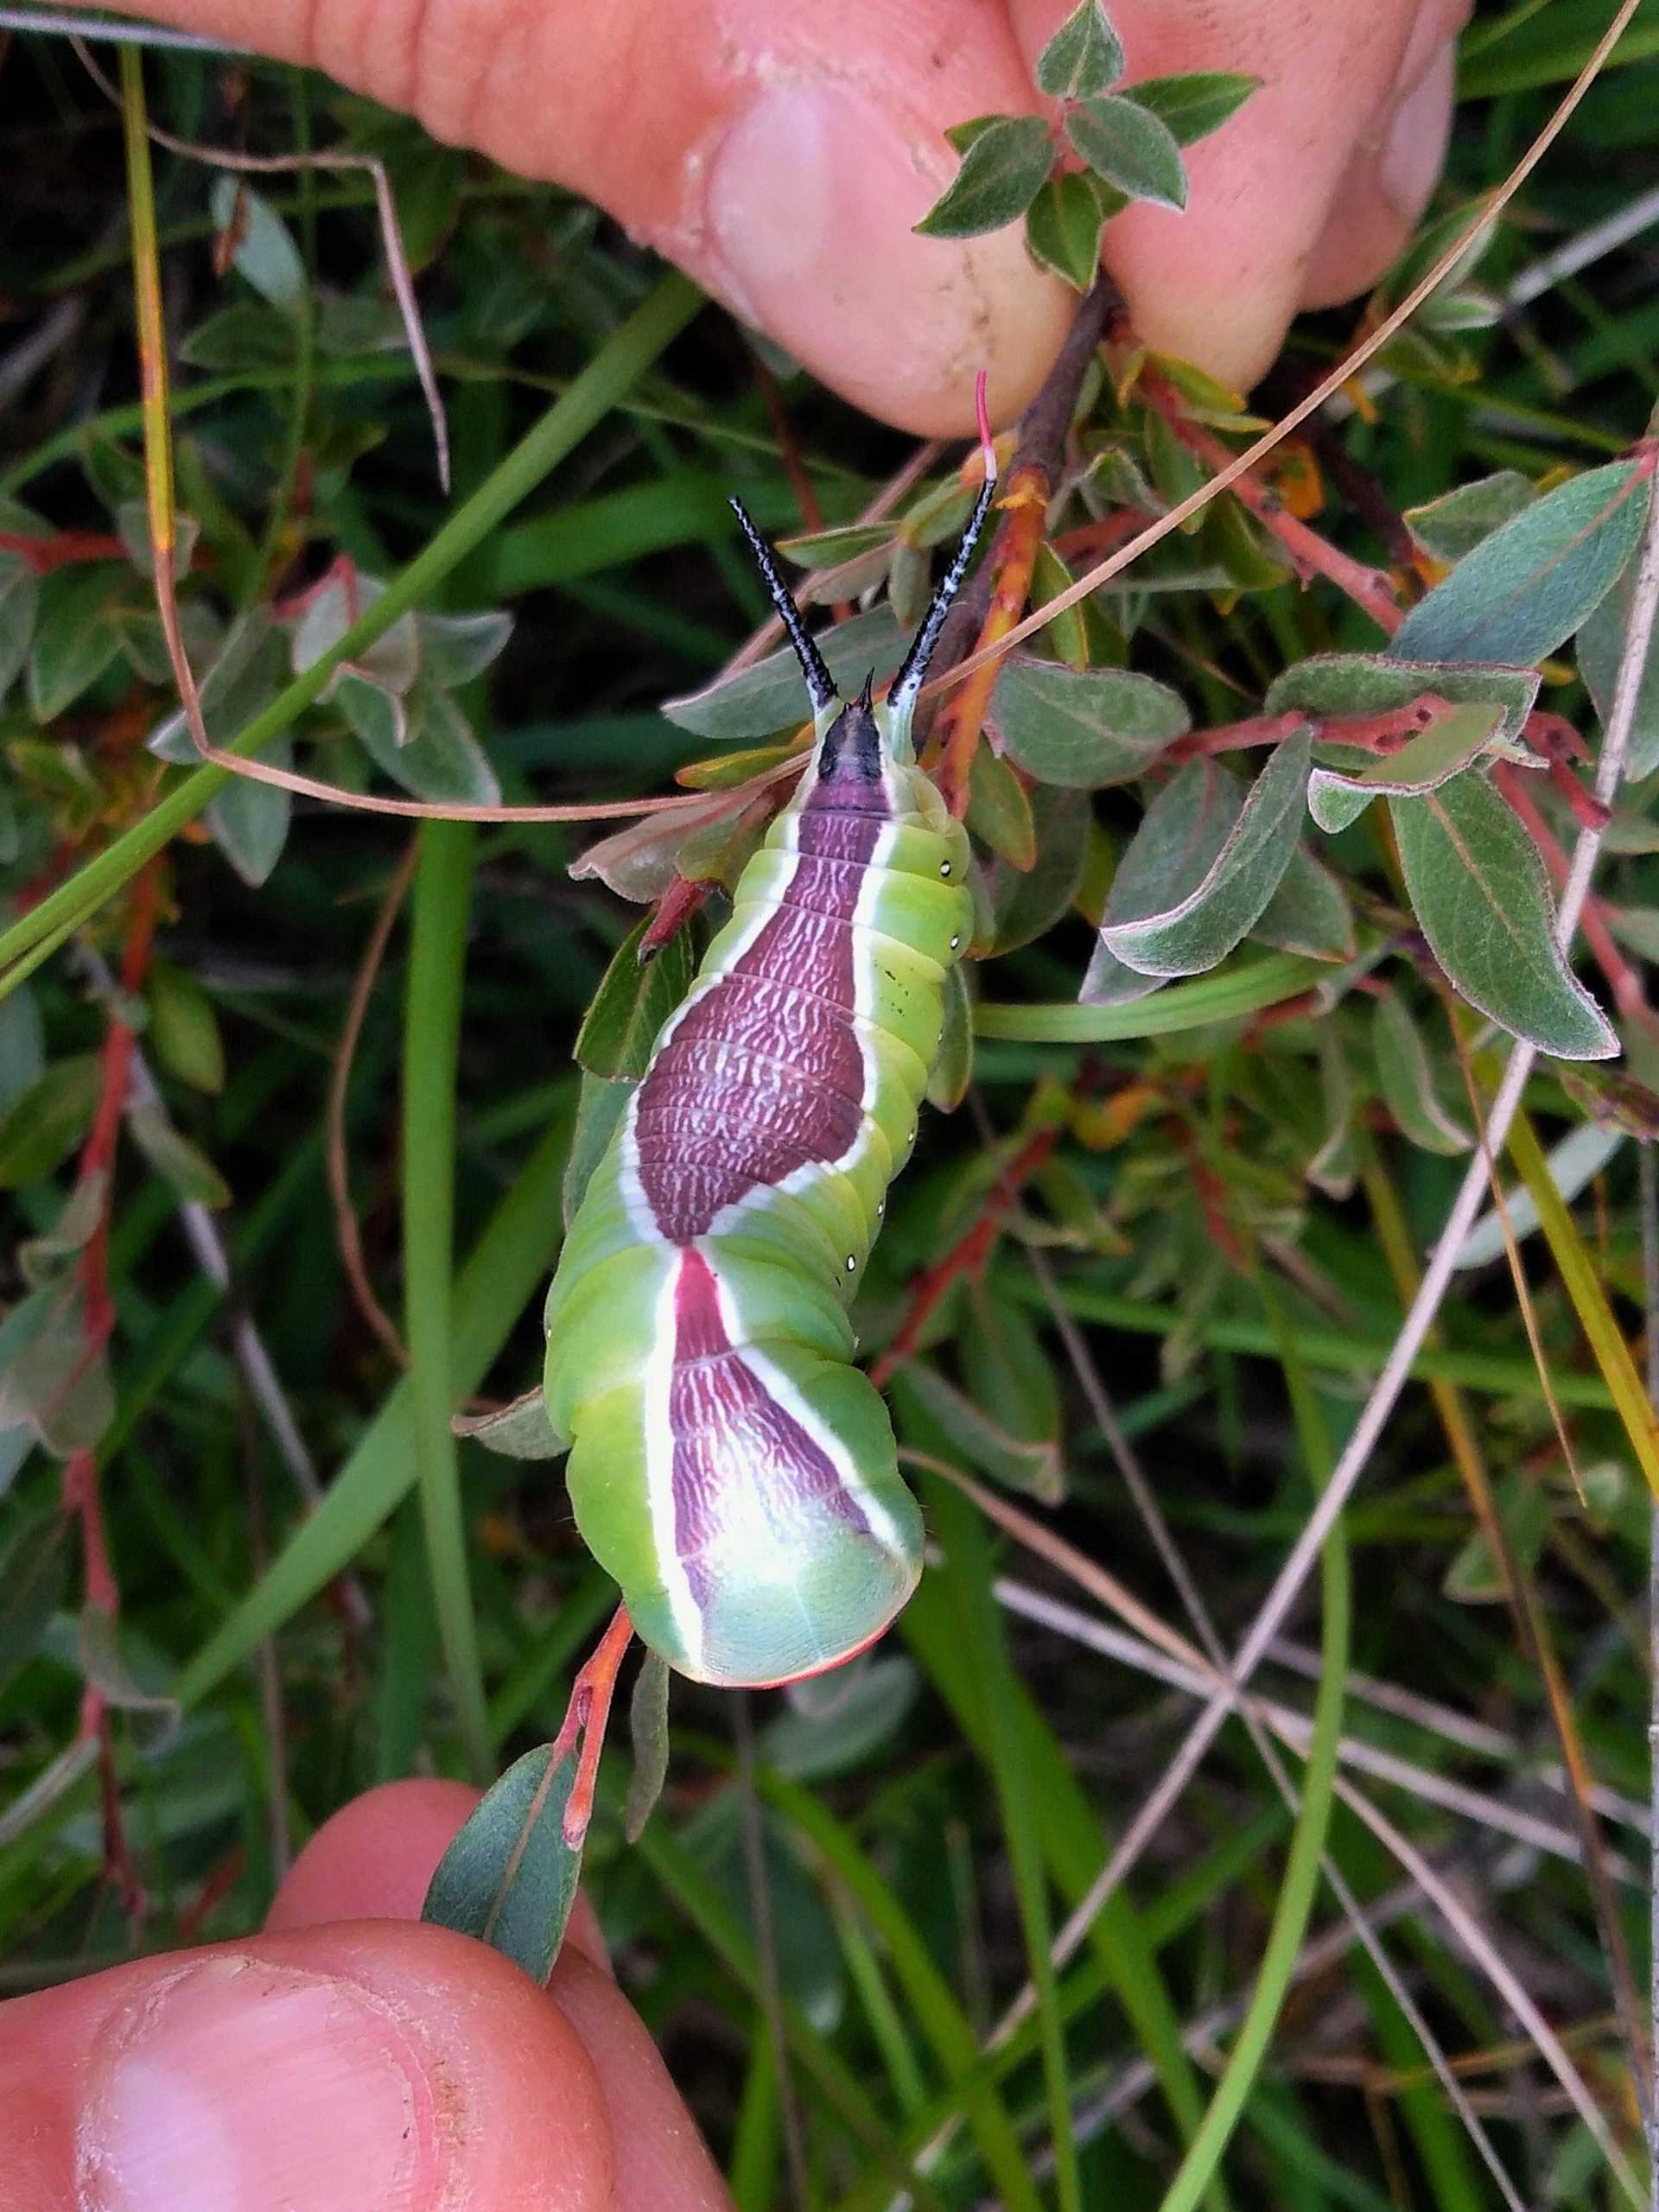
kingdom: Animalia
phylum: Arthropoda
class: Insecta
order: Lepidoptera
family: Notodontidae
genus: Cerura
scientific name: Cerura vinula
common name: Hermelinskåbe
